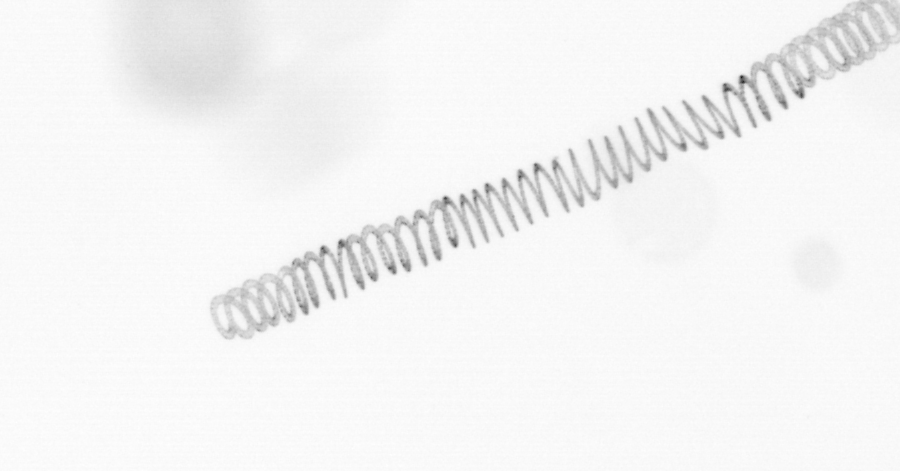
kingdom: Chromista
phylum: Ochrophyta
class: Bacillariophyceae
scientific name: Bacillariophyceae
